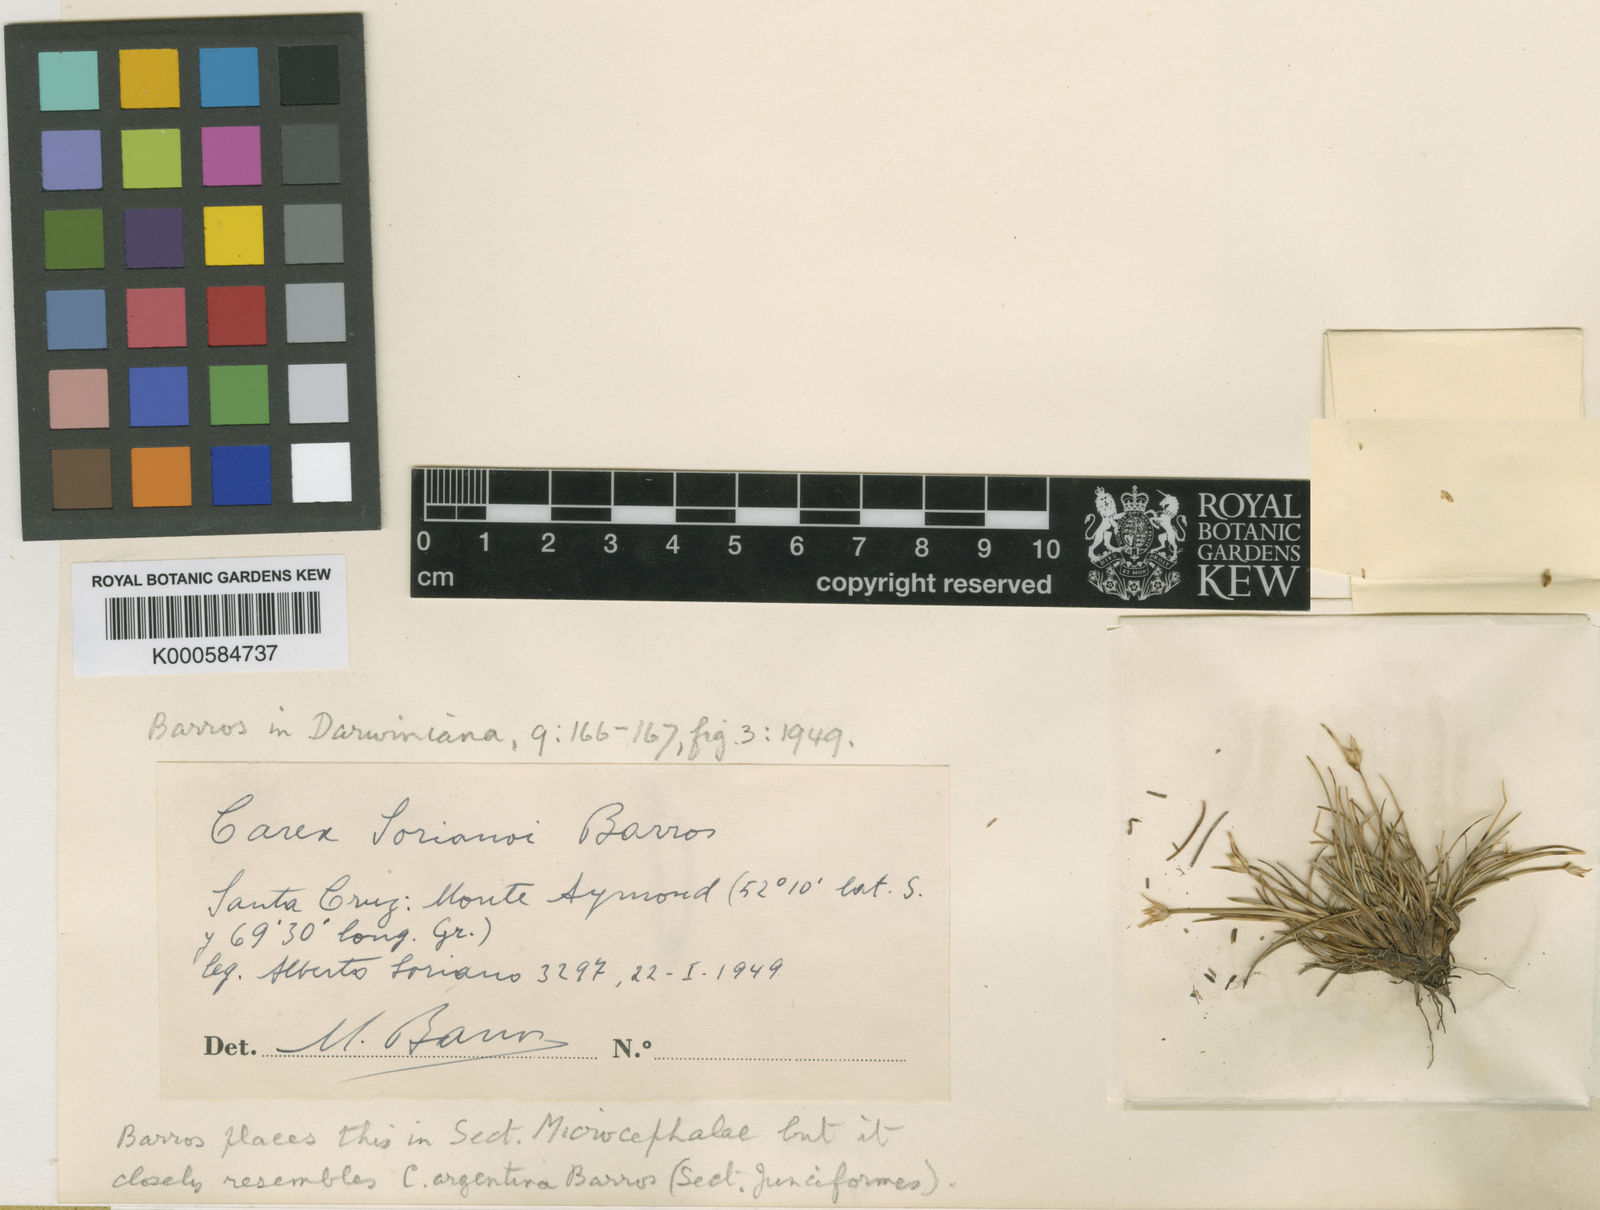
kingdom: Plantae
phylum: Tracheophyta
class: Liliopsida
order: Poales
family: Cyperaceae
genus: Carex
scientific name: Carex sorianoi
